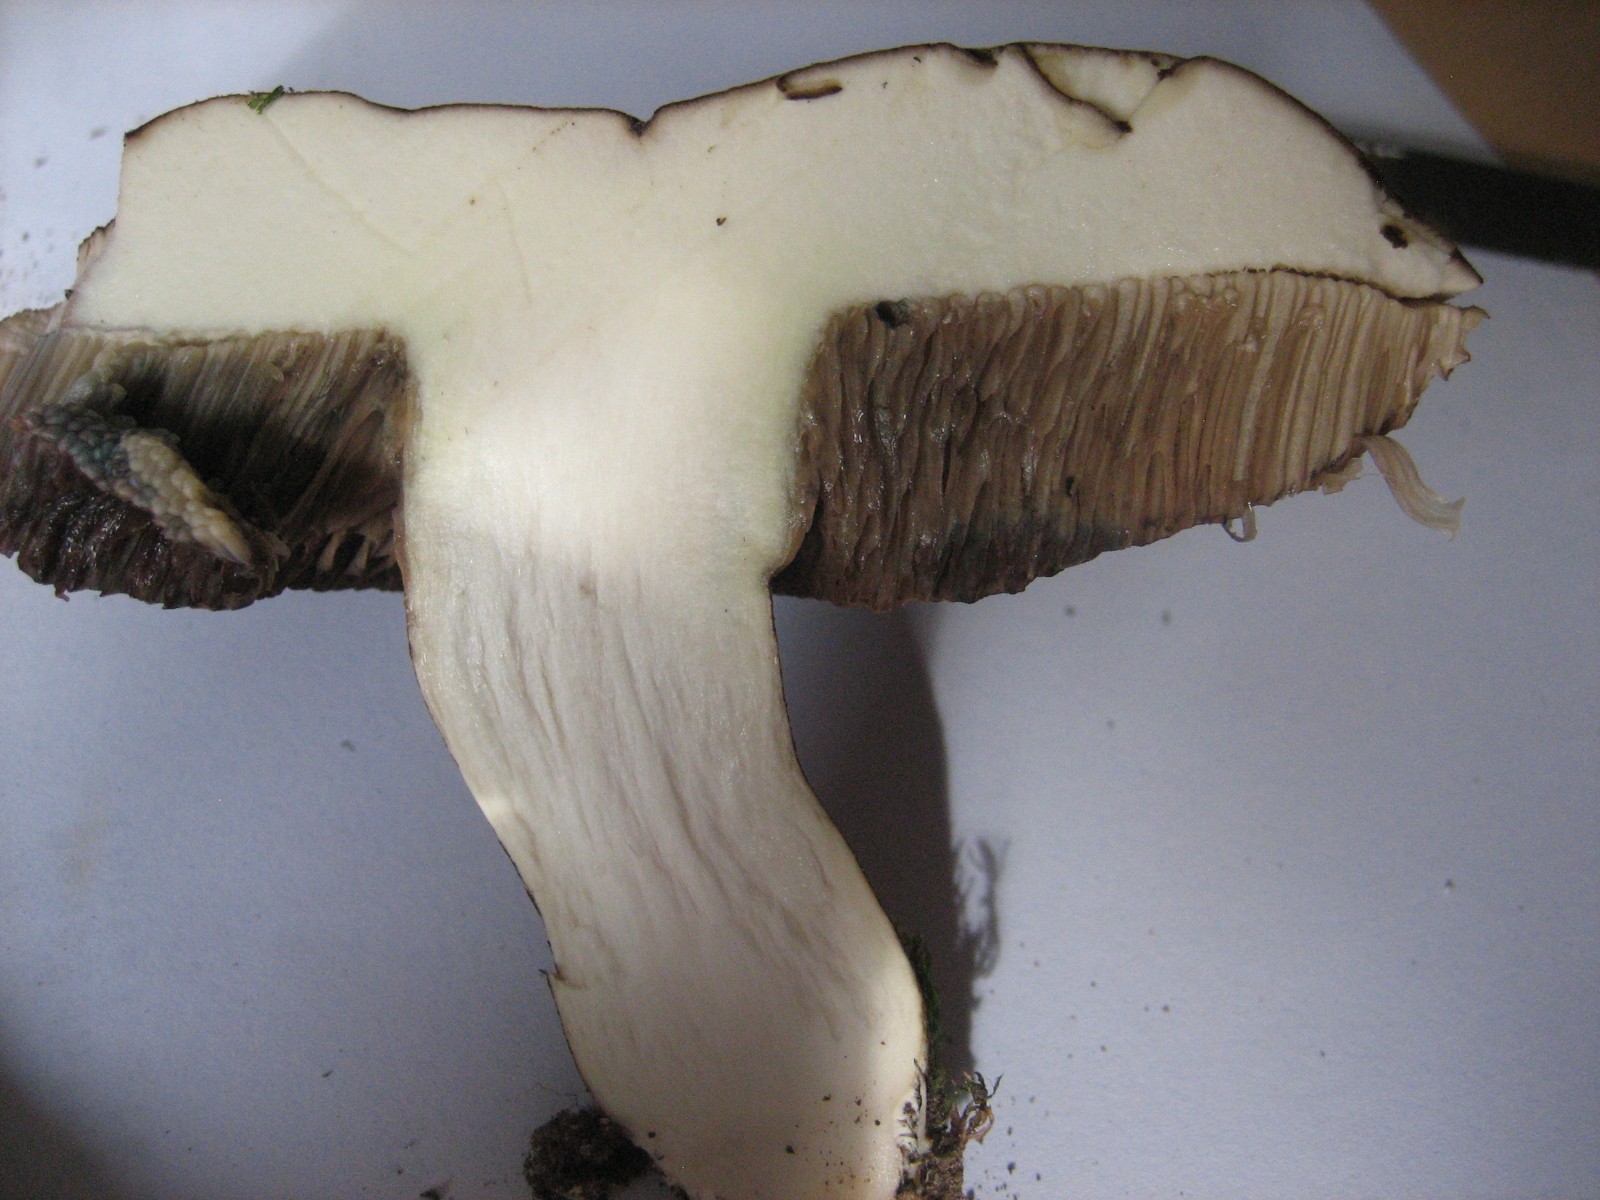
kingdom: Fungi
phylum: Basidiomycota
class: Agaricomycetes
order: Boletales
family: Boletaceae
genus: Porphyrellus
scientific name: Porphyrellus porphyrosporus
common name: sodrørhat
